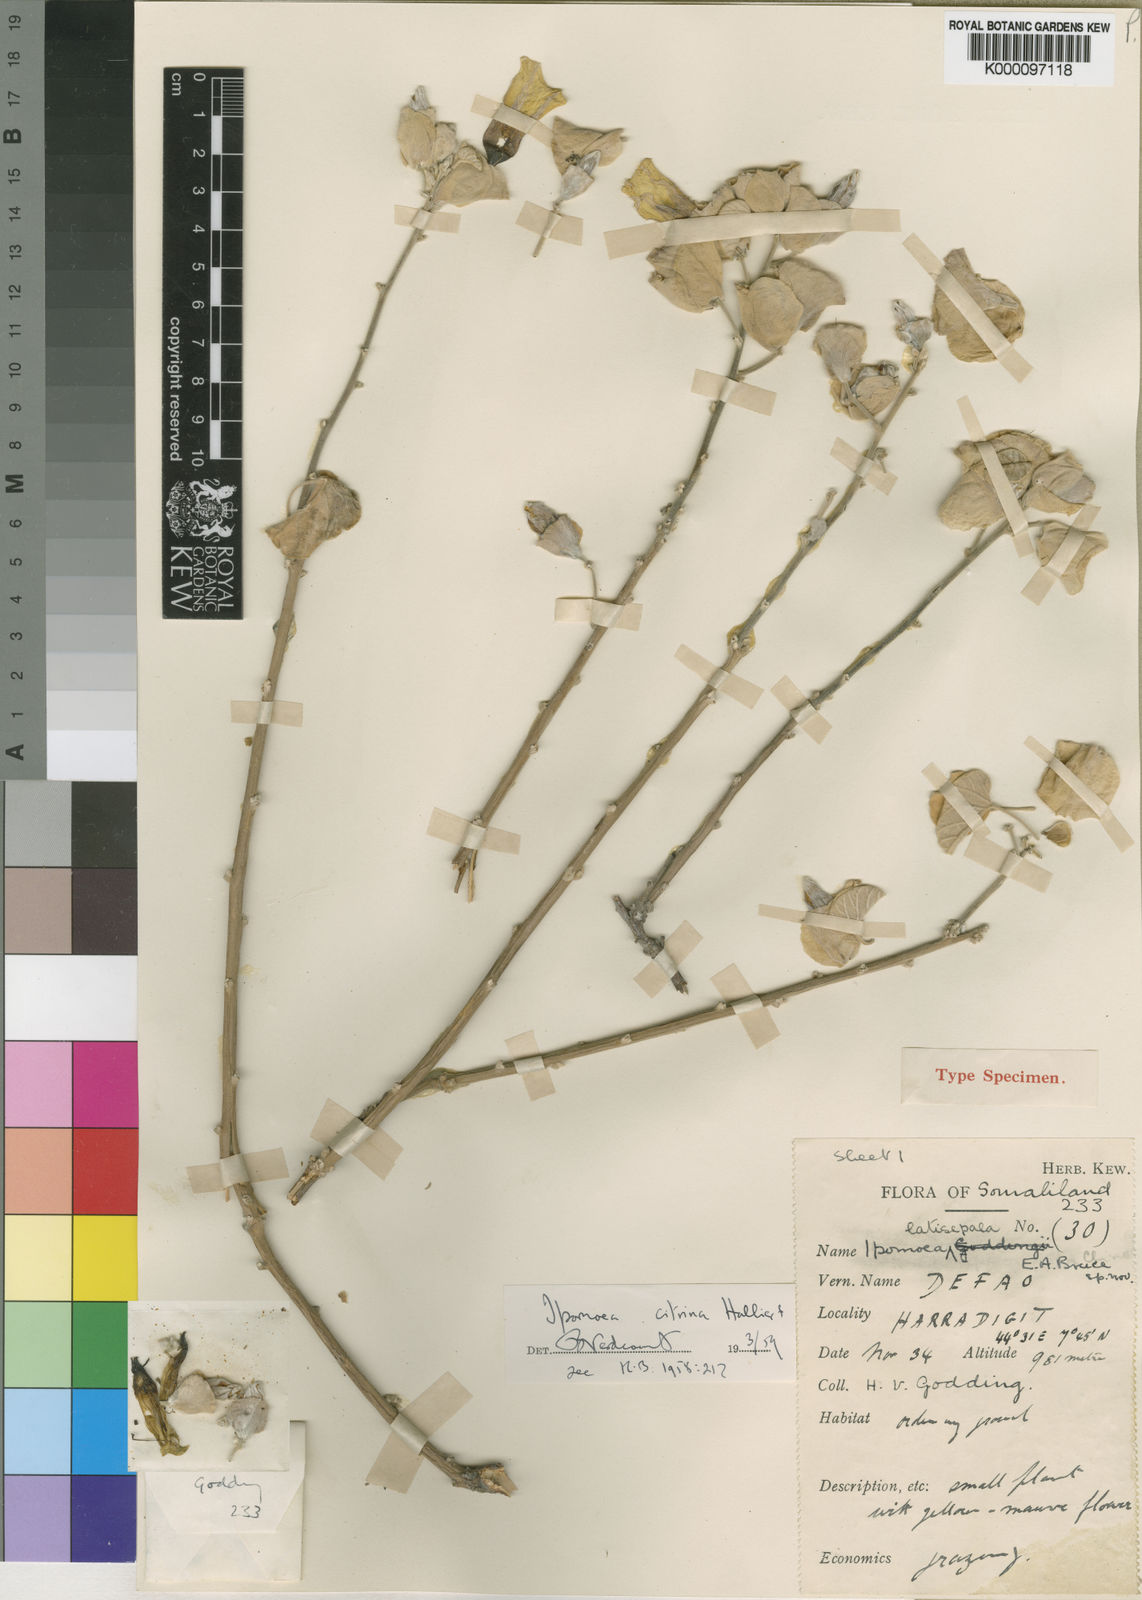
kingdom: Plantae
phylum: Tracheophyta
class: Magnoliopsida
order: Solanales
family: Convolvulaceae
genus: Ipomoea
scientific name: Ipomoea citrina
